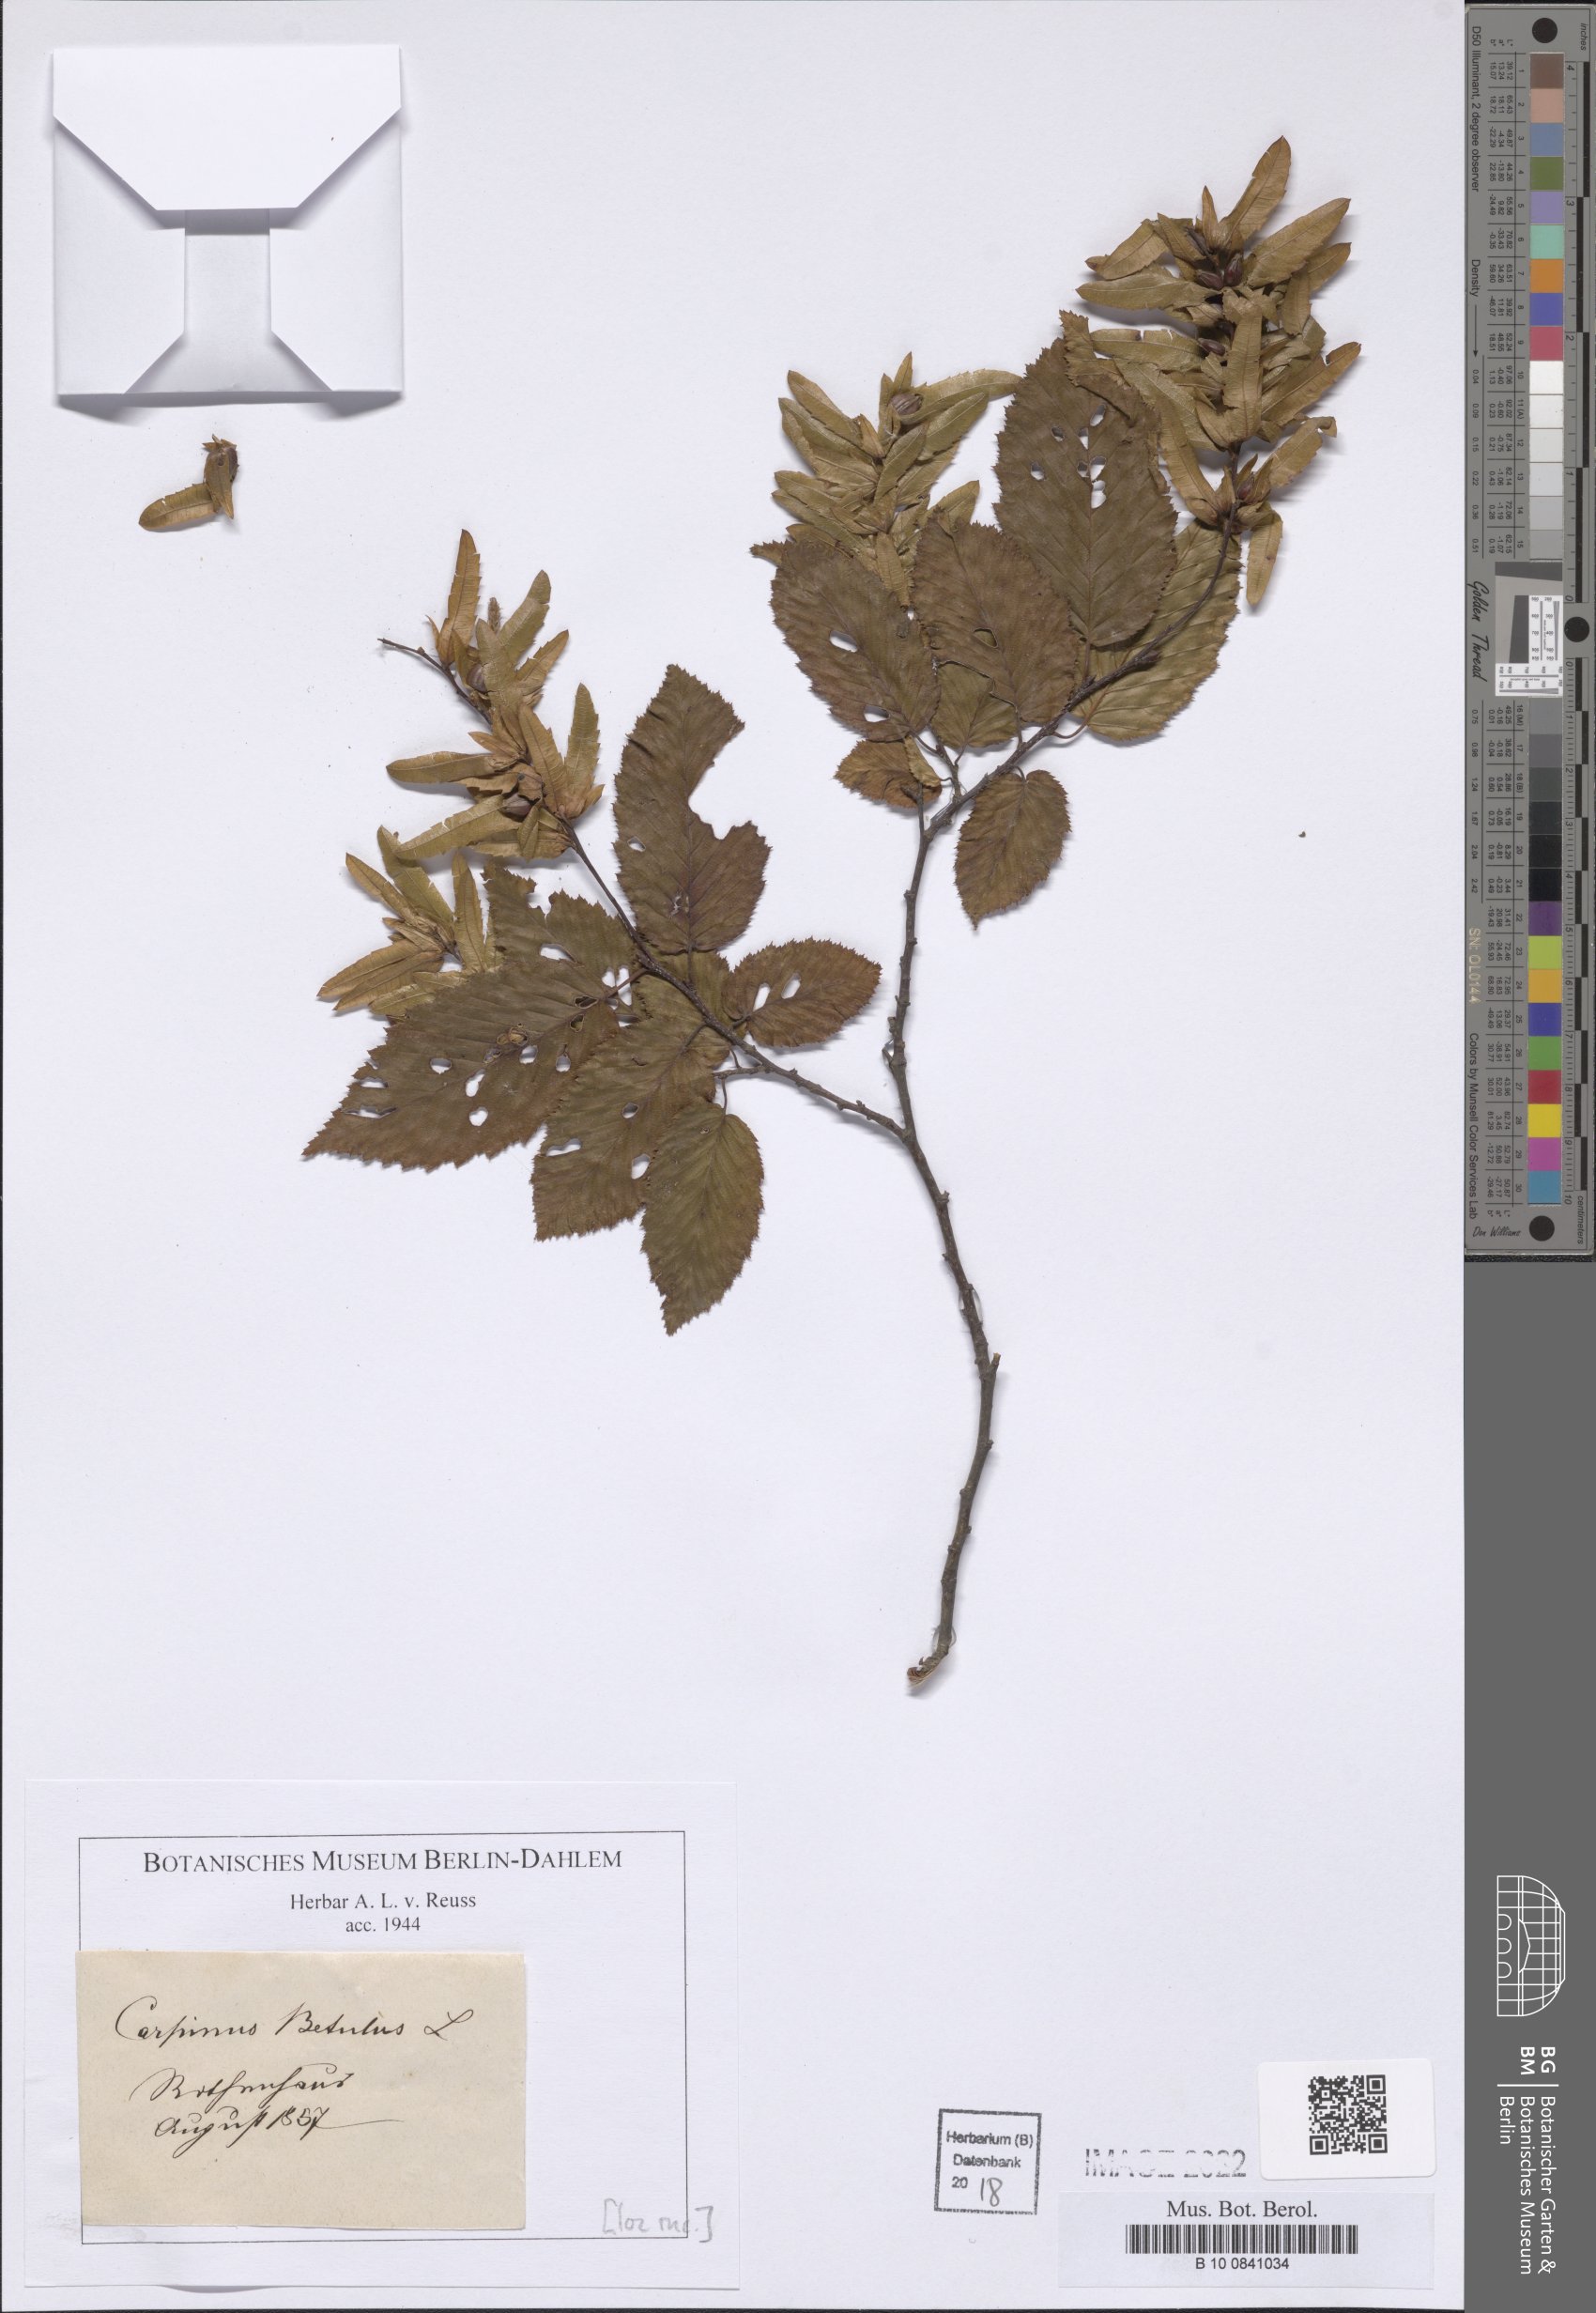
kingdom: Plantae
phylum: Tracheophyta
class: Magnoliopsida
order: Fagales
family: Betulaceae
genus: Carpinus
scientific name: Carpinus betulus
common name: Hornbeam
